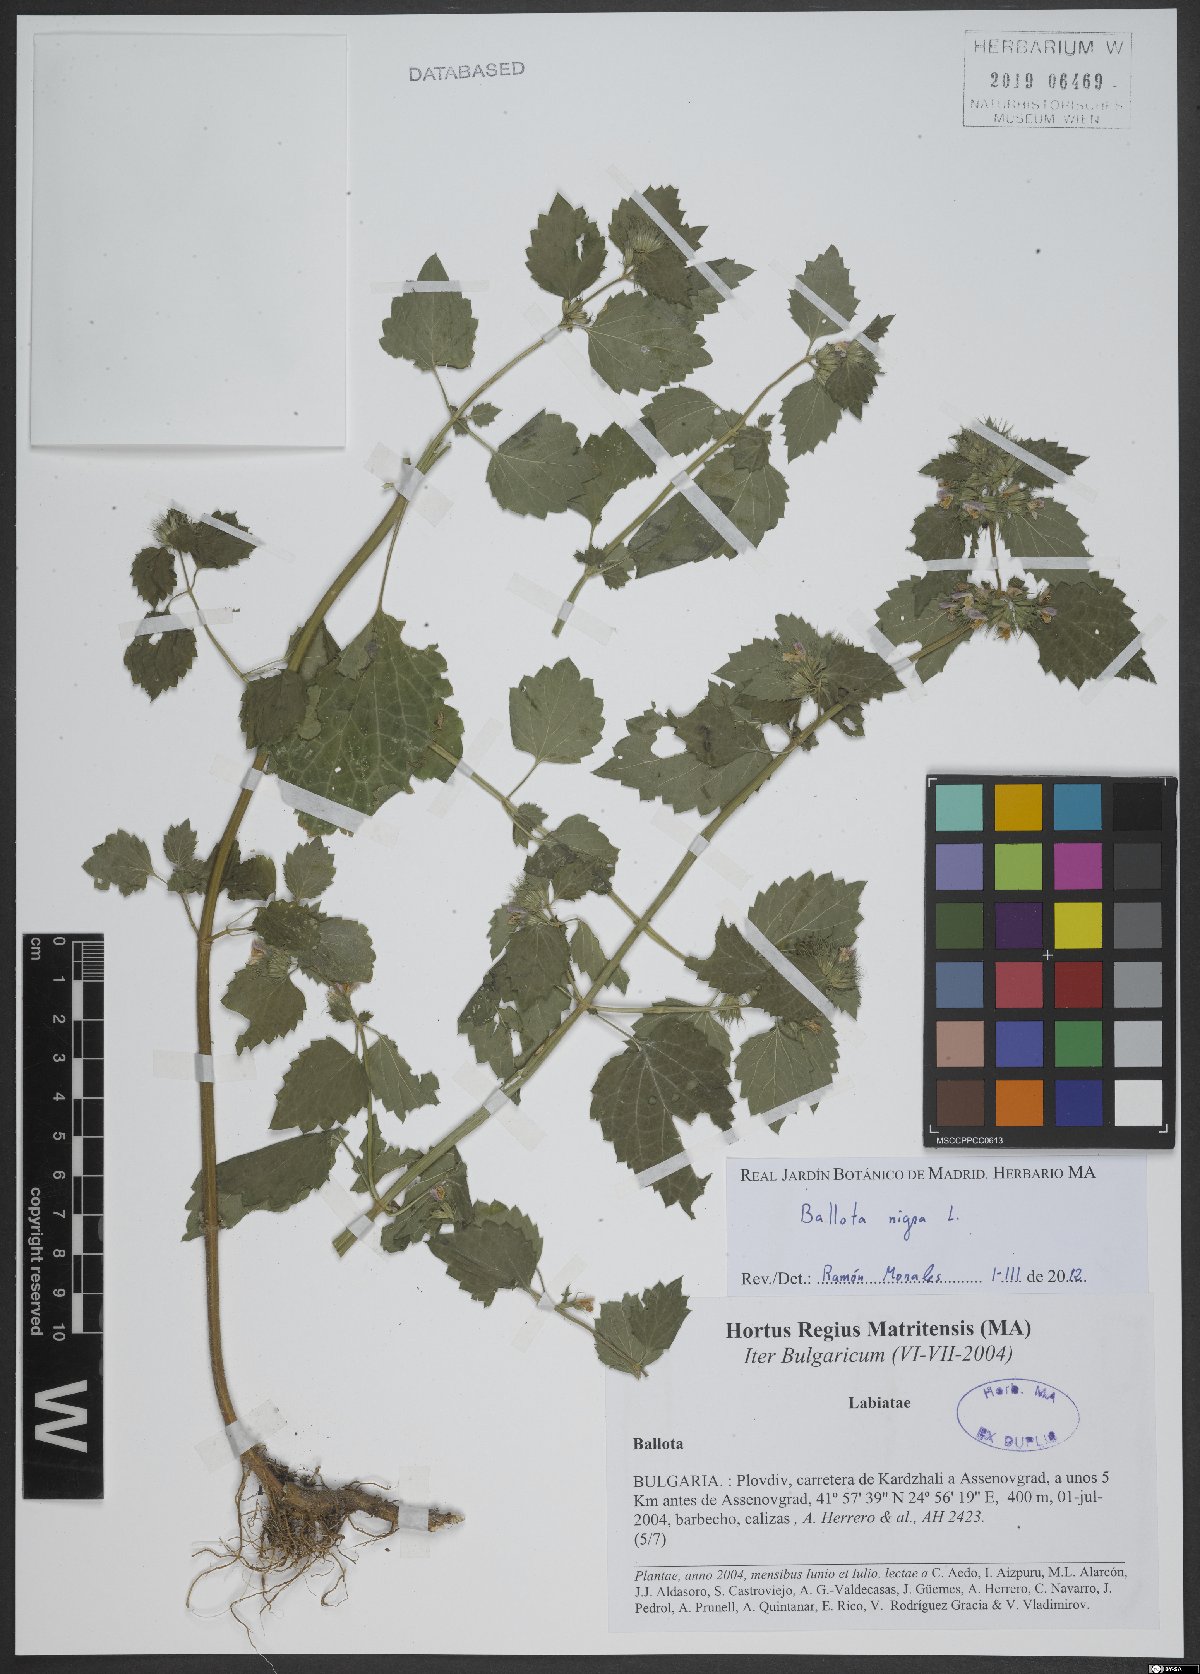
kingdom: Plantae
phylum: Tracheophyta
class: Magnoliopsida
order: Lamiales
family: Lamiaceae
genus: Ballota
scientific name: Ballota nigra
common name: Black horehound
